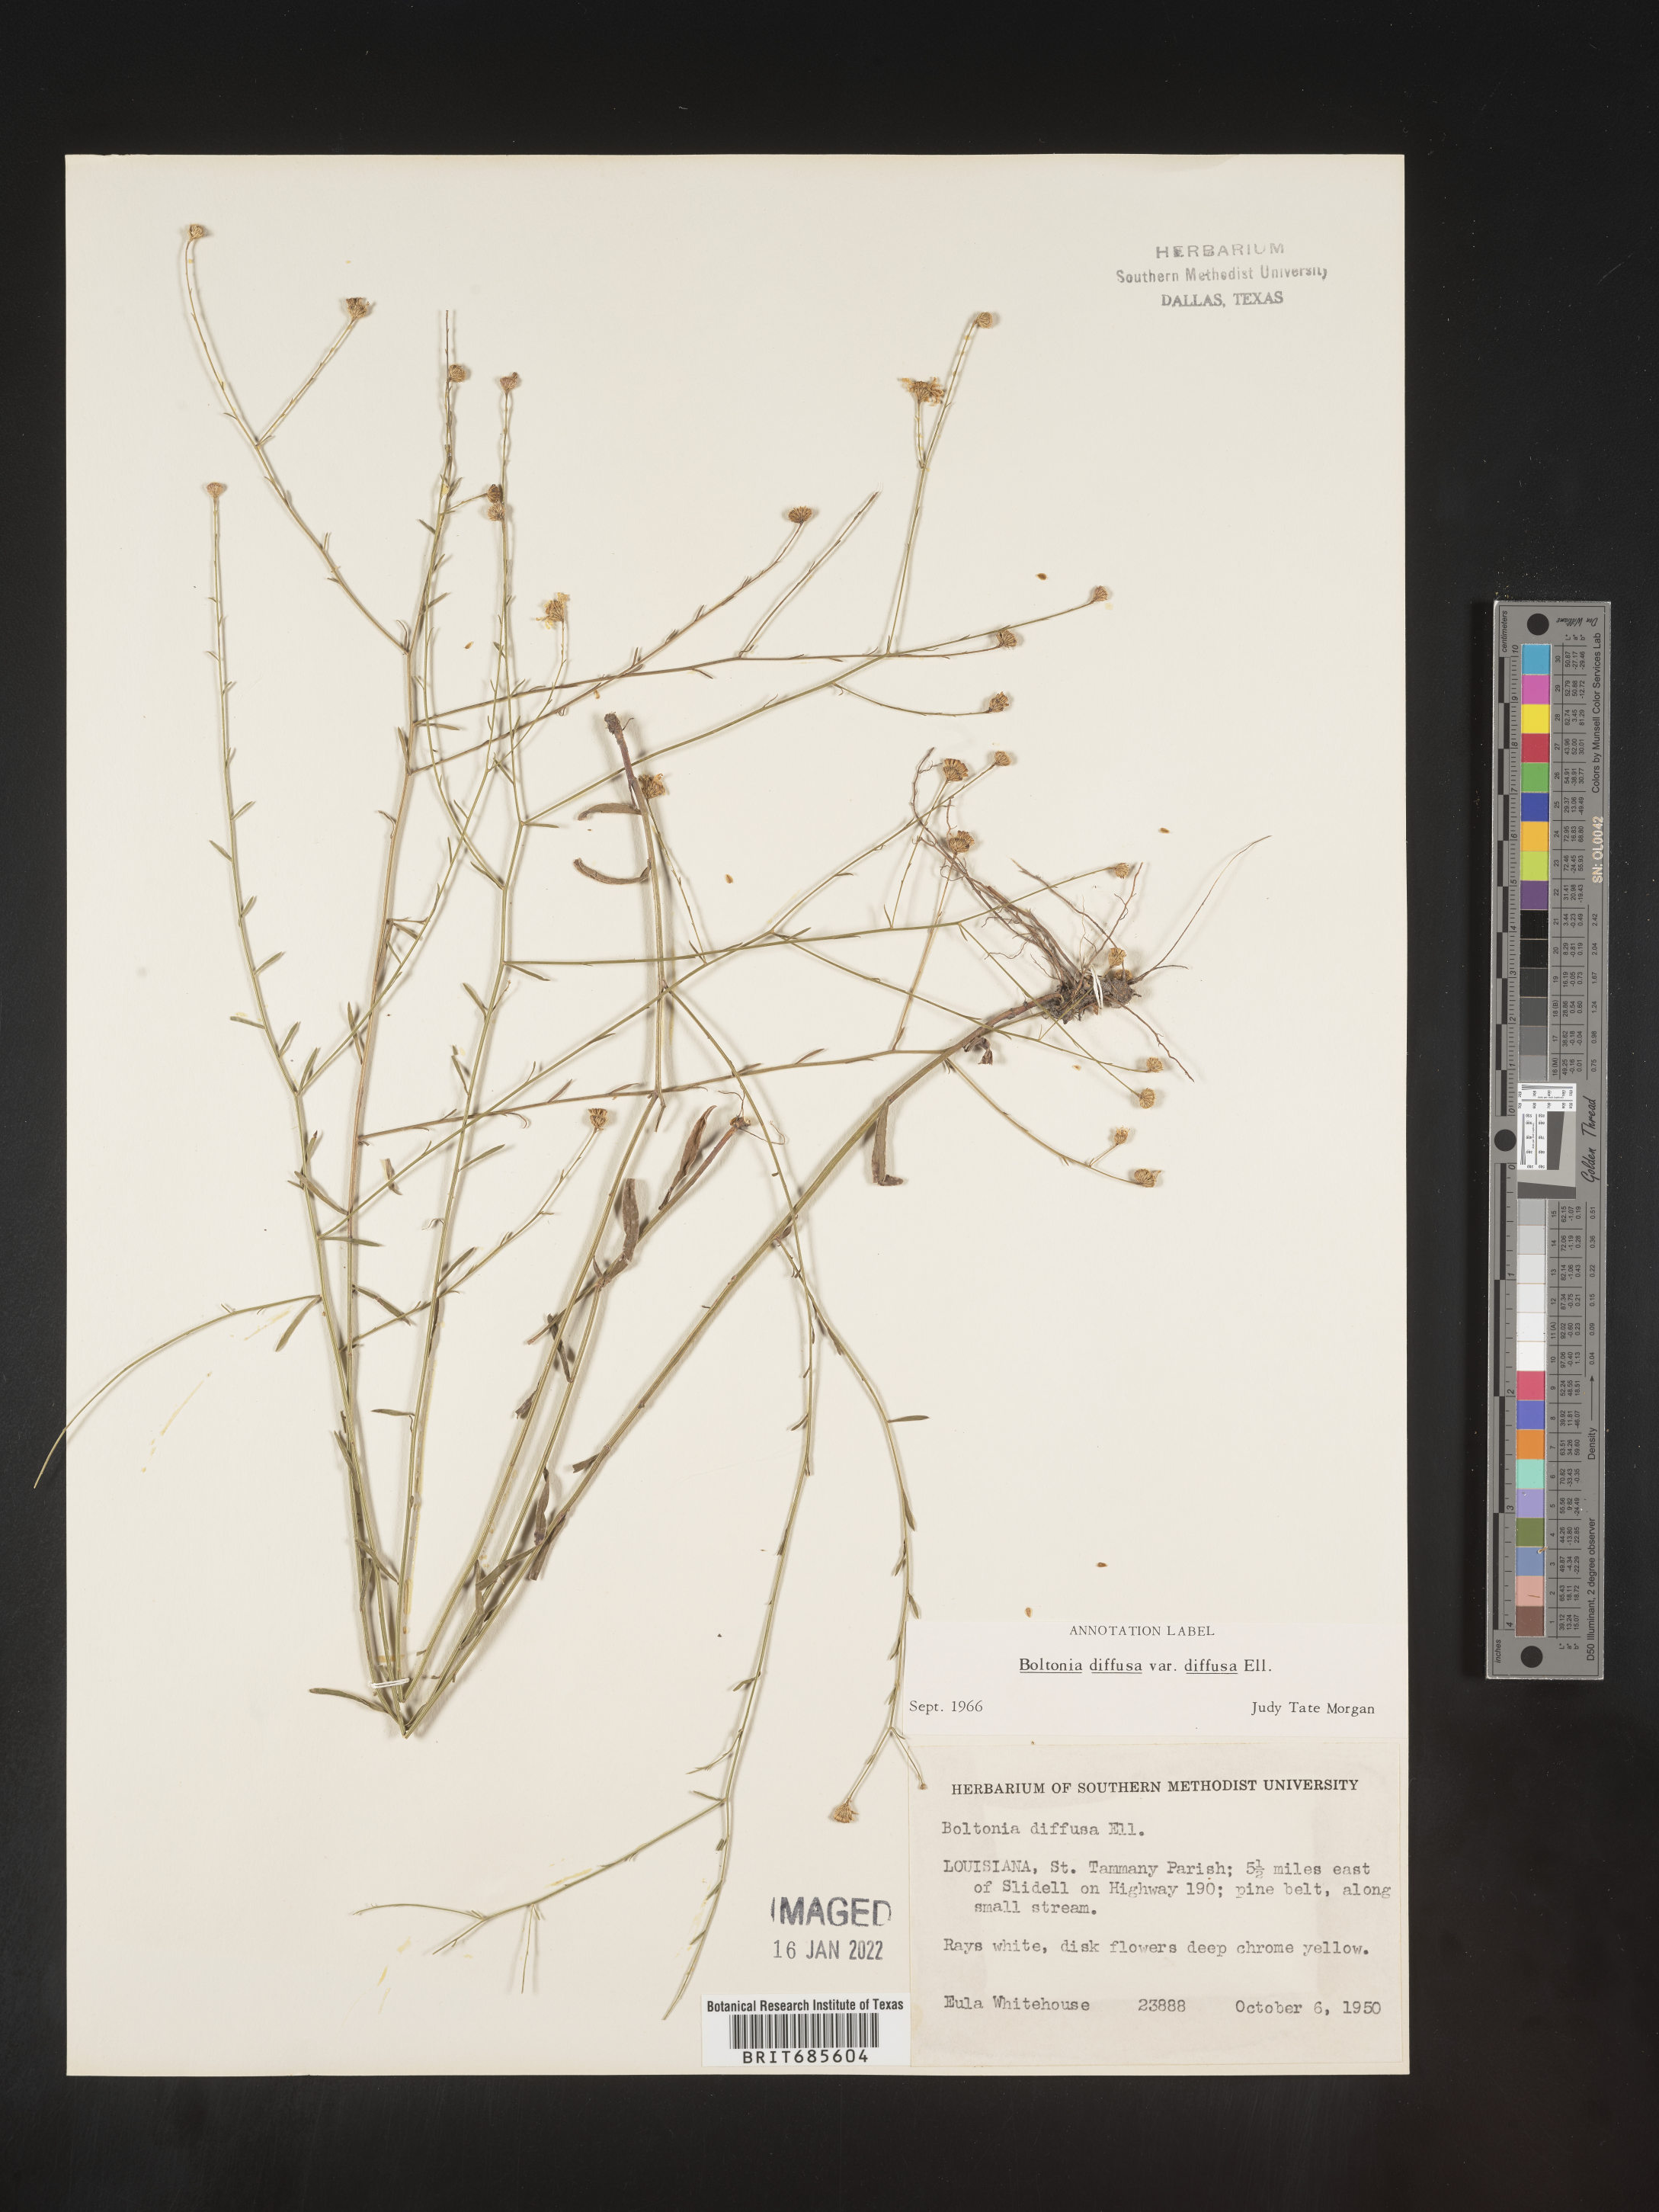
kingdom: Plantae
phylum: Tracheophyta
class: Magnoliopsida
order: Asterales
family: Asteraceae
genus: Boltonia
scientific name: Boltonia diffusa
